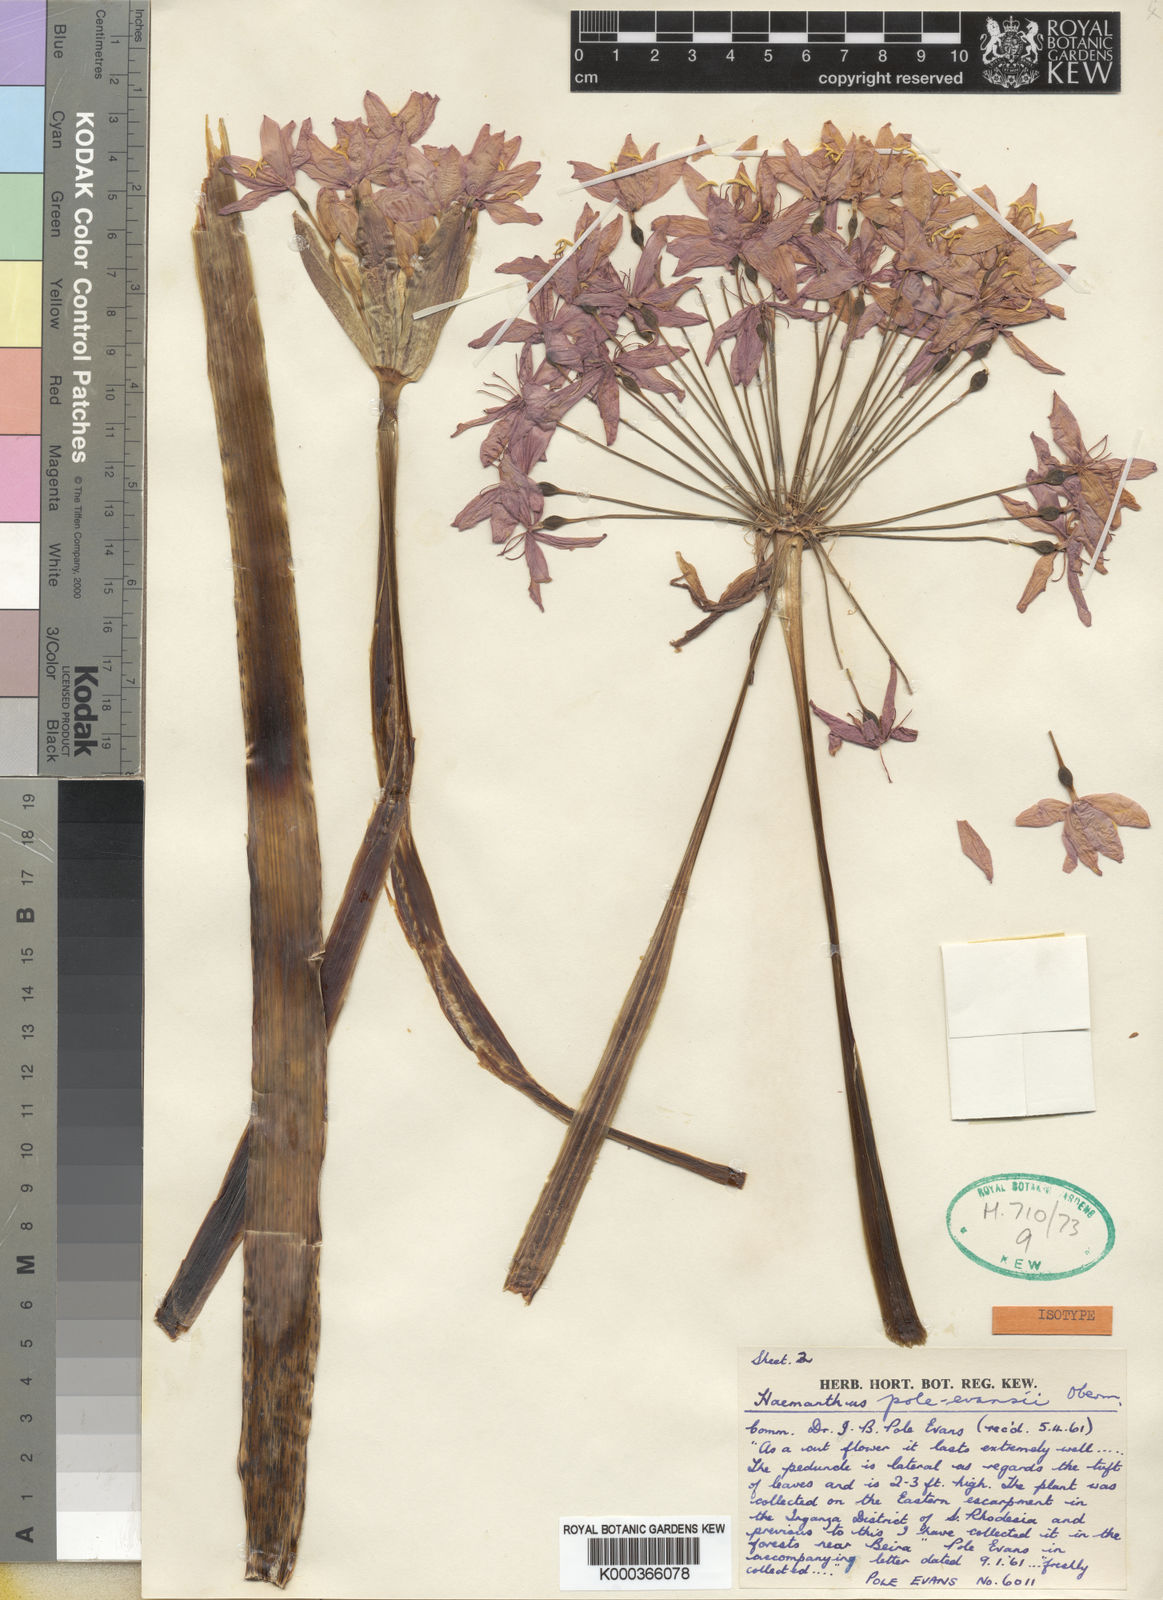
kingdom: Plantae
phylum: Tracheophyta
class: Liliopsida
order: Asparagales
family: Amaryllidaceae
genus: Scadoxus
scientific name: Scadoxus pole-evansii
